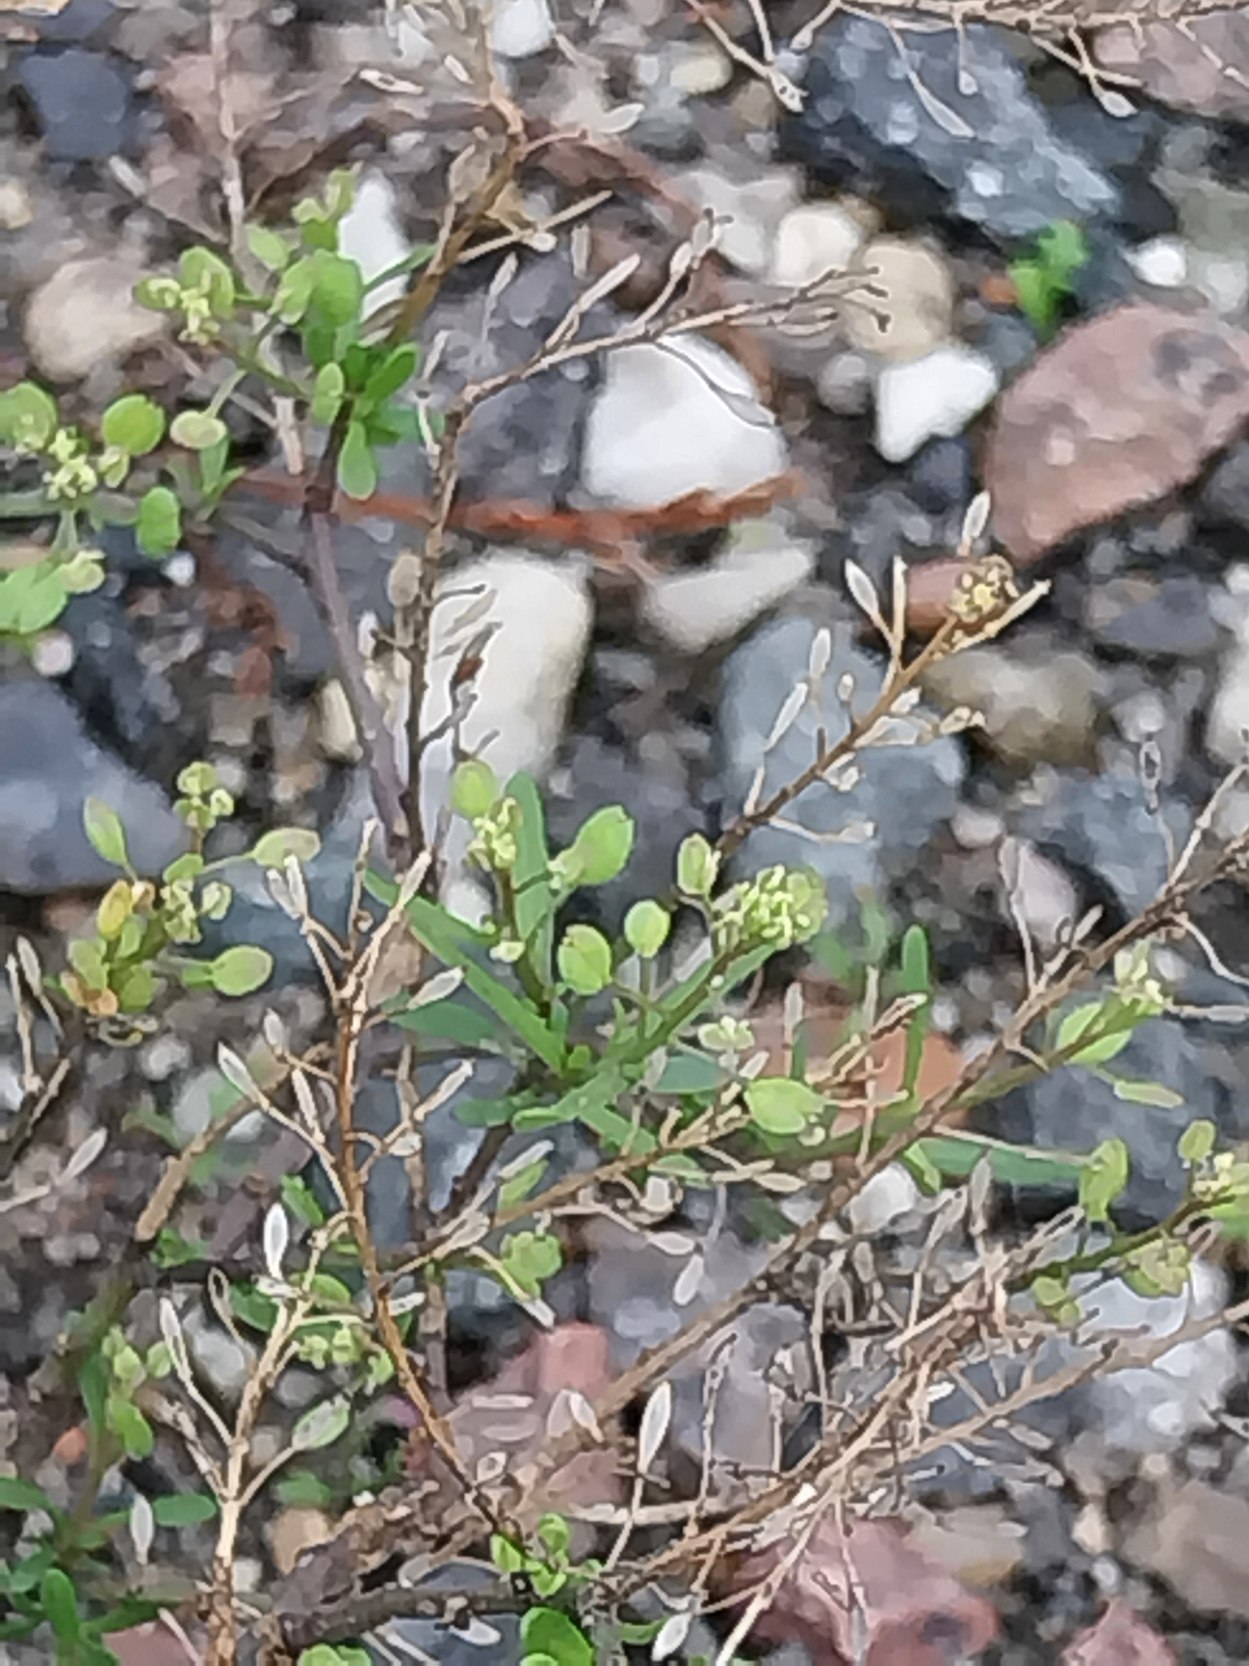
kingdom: Plantae
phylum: Tracheophyta
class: Magnoliopsida
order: Brassicales
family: Brassicaceae
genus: Lepidium
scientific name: Lepidium ruderale
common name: Stinkende karse
